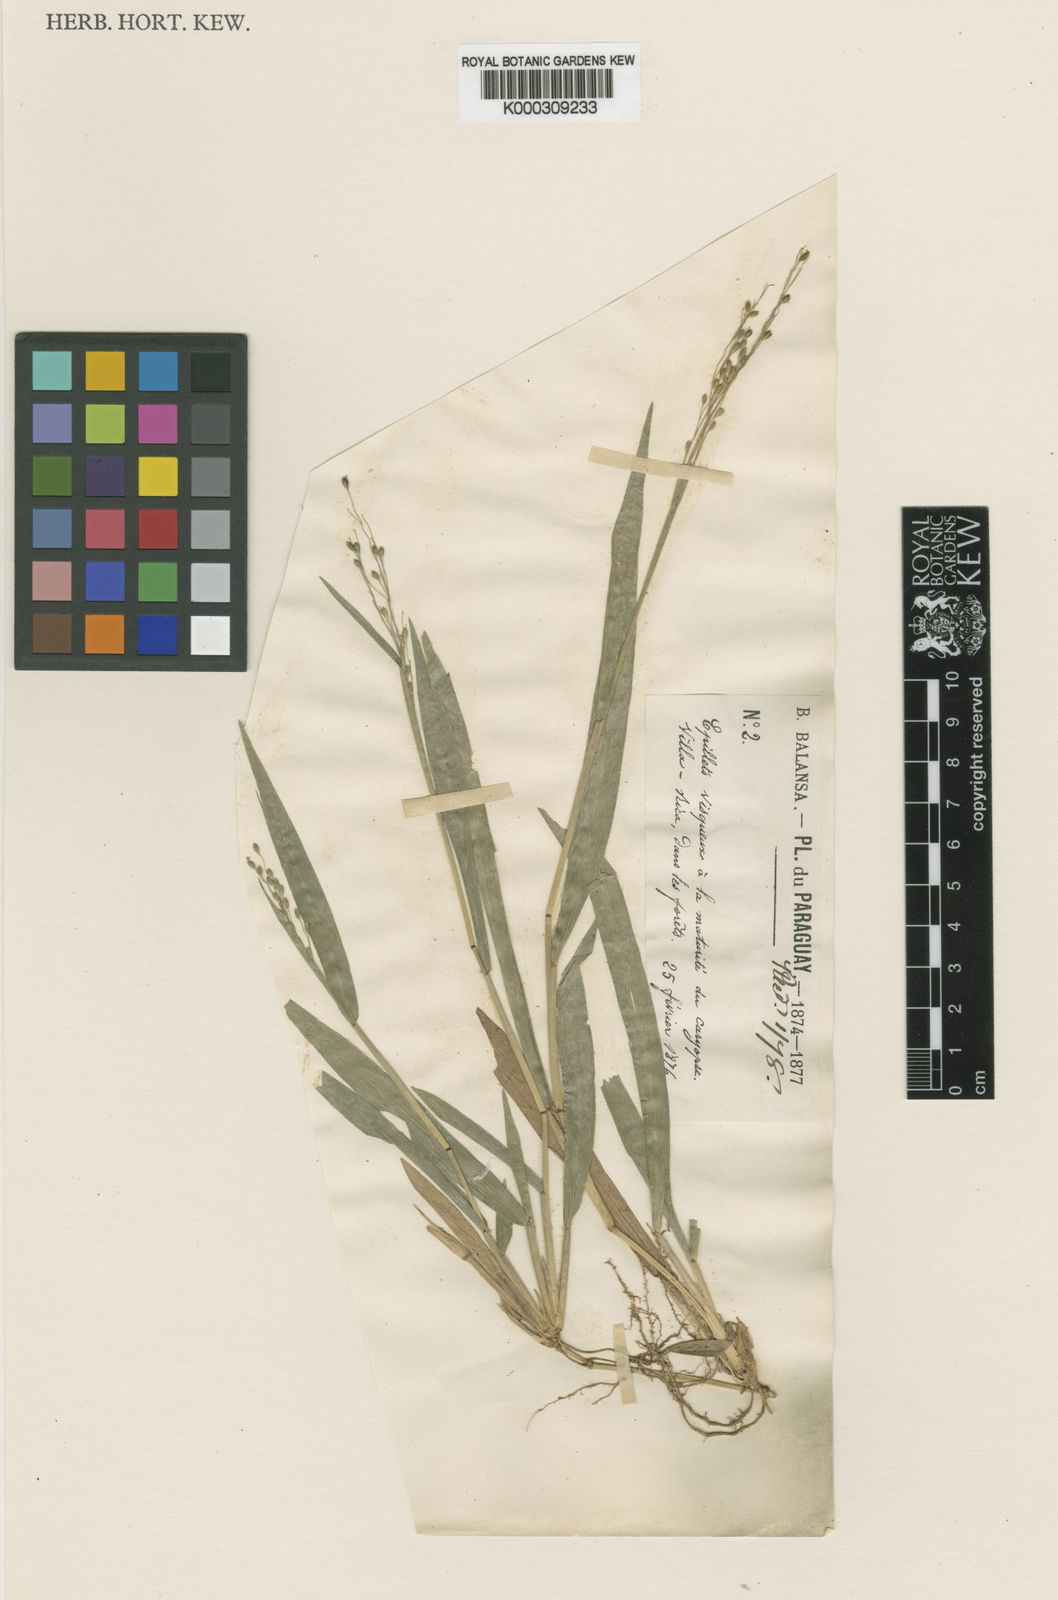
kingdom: Plantae
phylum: Tracheophyta
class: Liliopsida
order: Poales
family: Poaceae
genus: Homolepis
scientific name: Homolepis villaricensis
